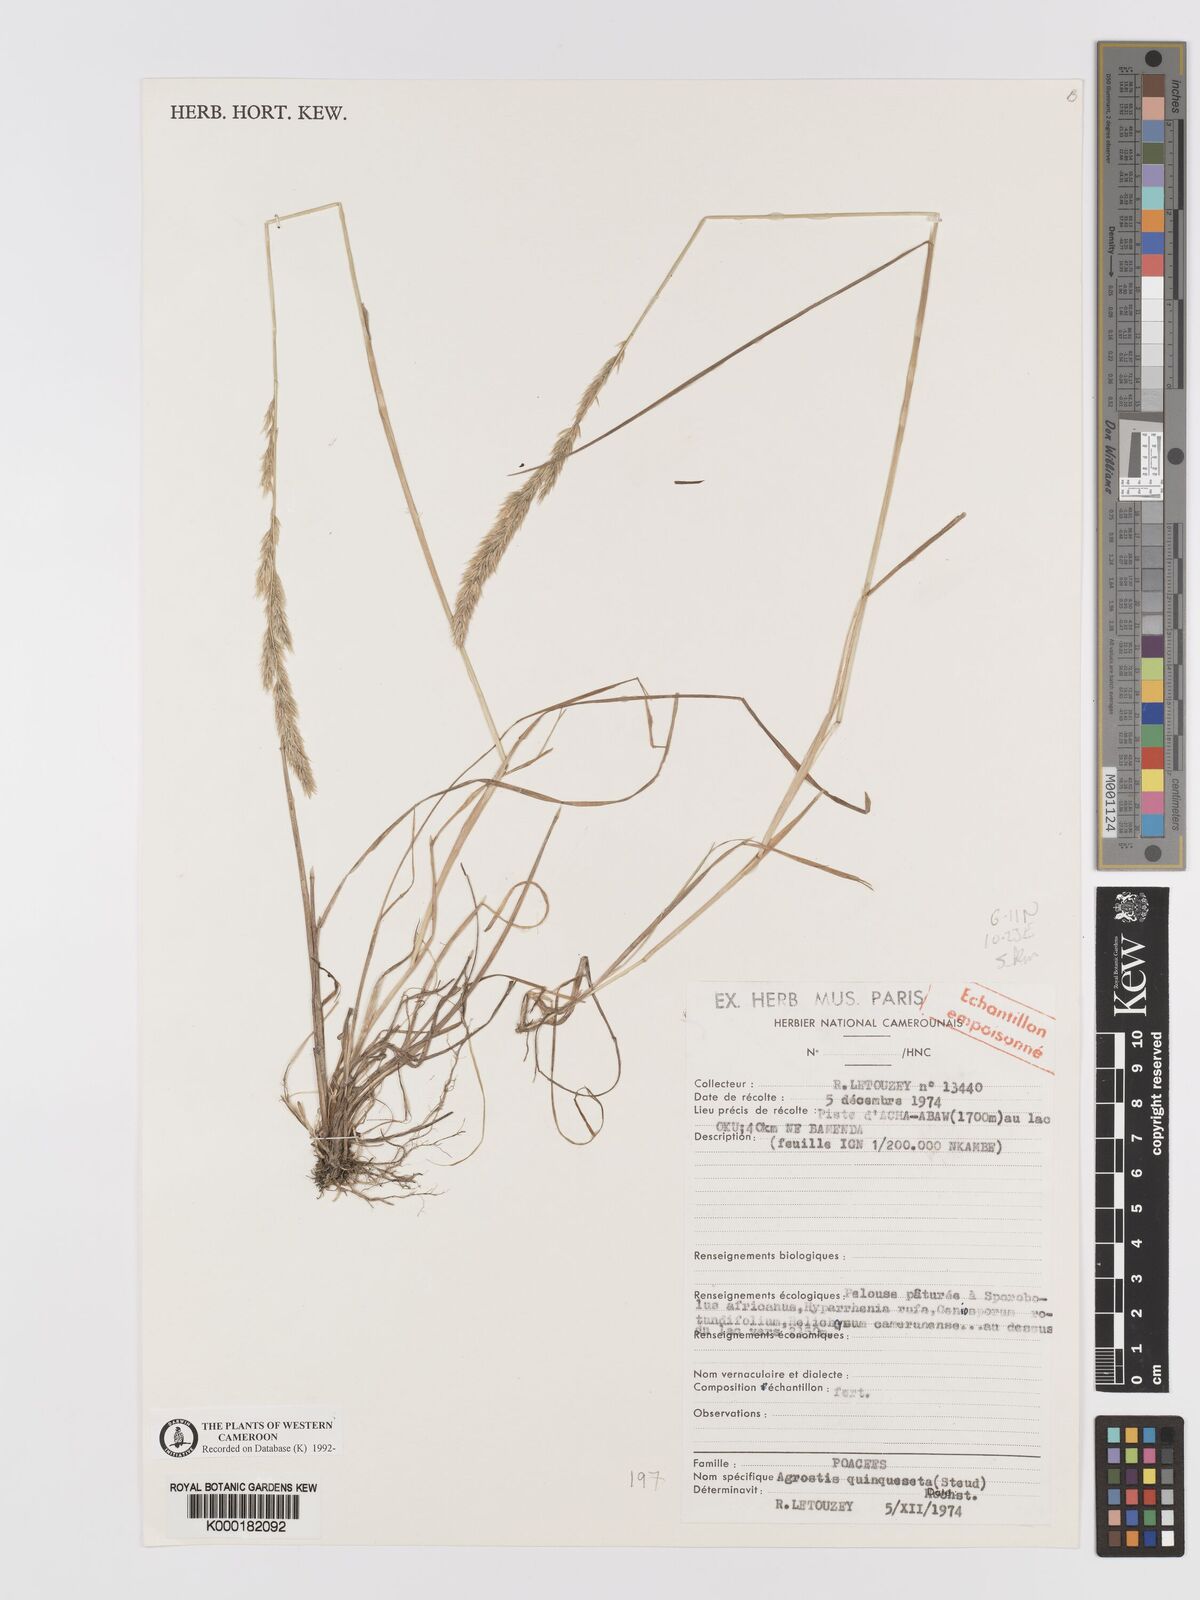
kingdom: Plantae
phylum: Tracheophyta
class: Liliopsida
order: Poales
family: Poaceae
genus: Agrostis
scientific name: Agrostis quinqueseta
